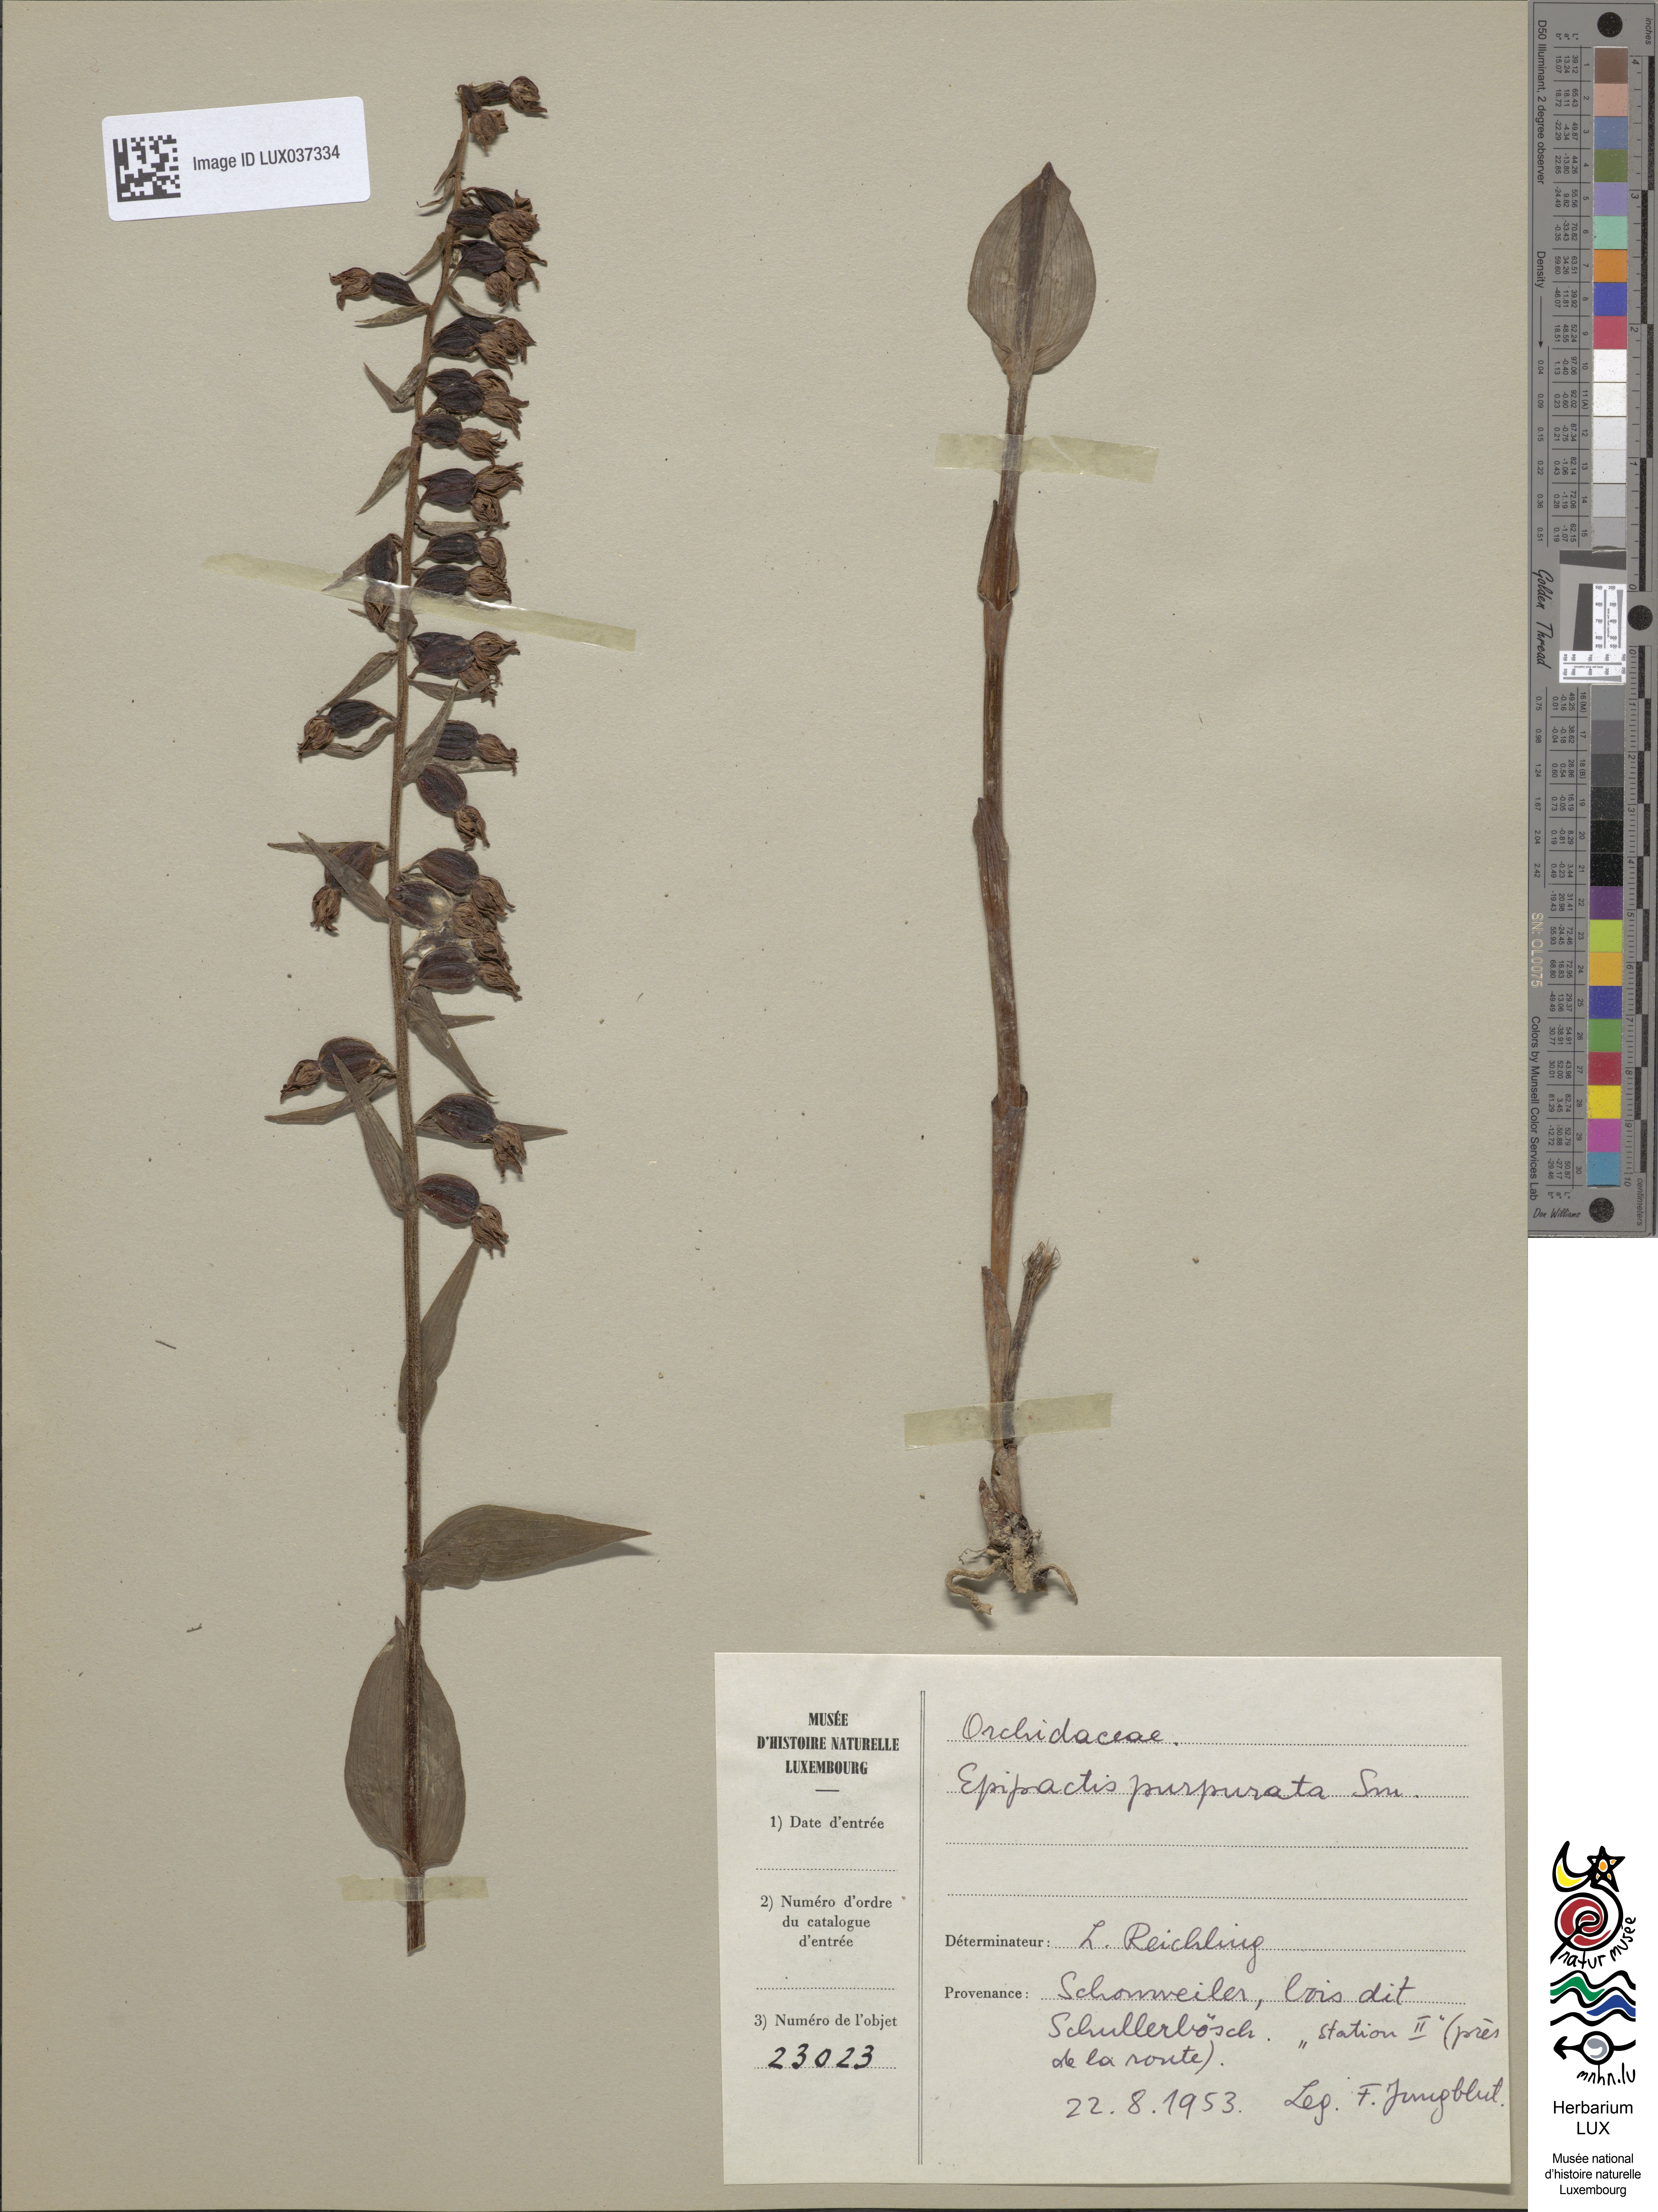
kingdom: Plantae
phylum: Tracheophyta
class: Liliopsida
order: Asparagales
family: Orchidaceae
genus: Epipactis
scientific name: Epipactis purpurata
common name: Violet helleborine
